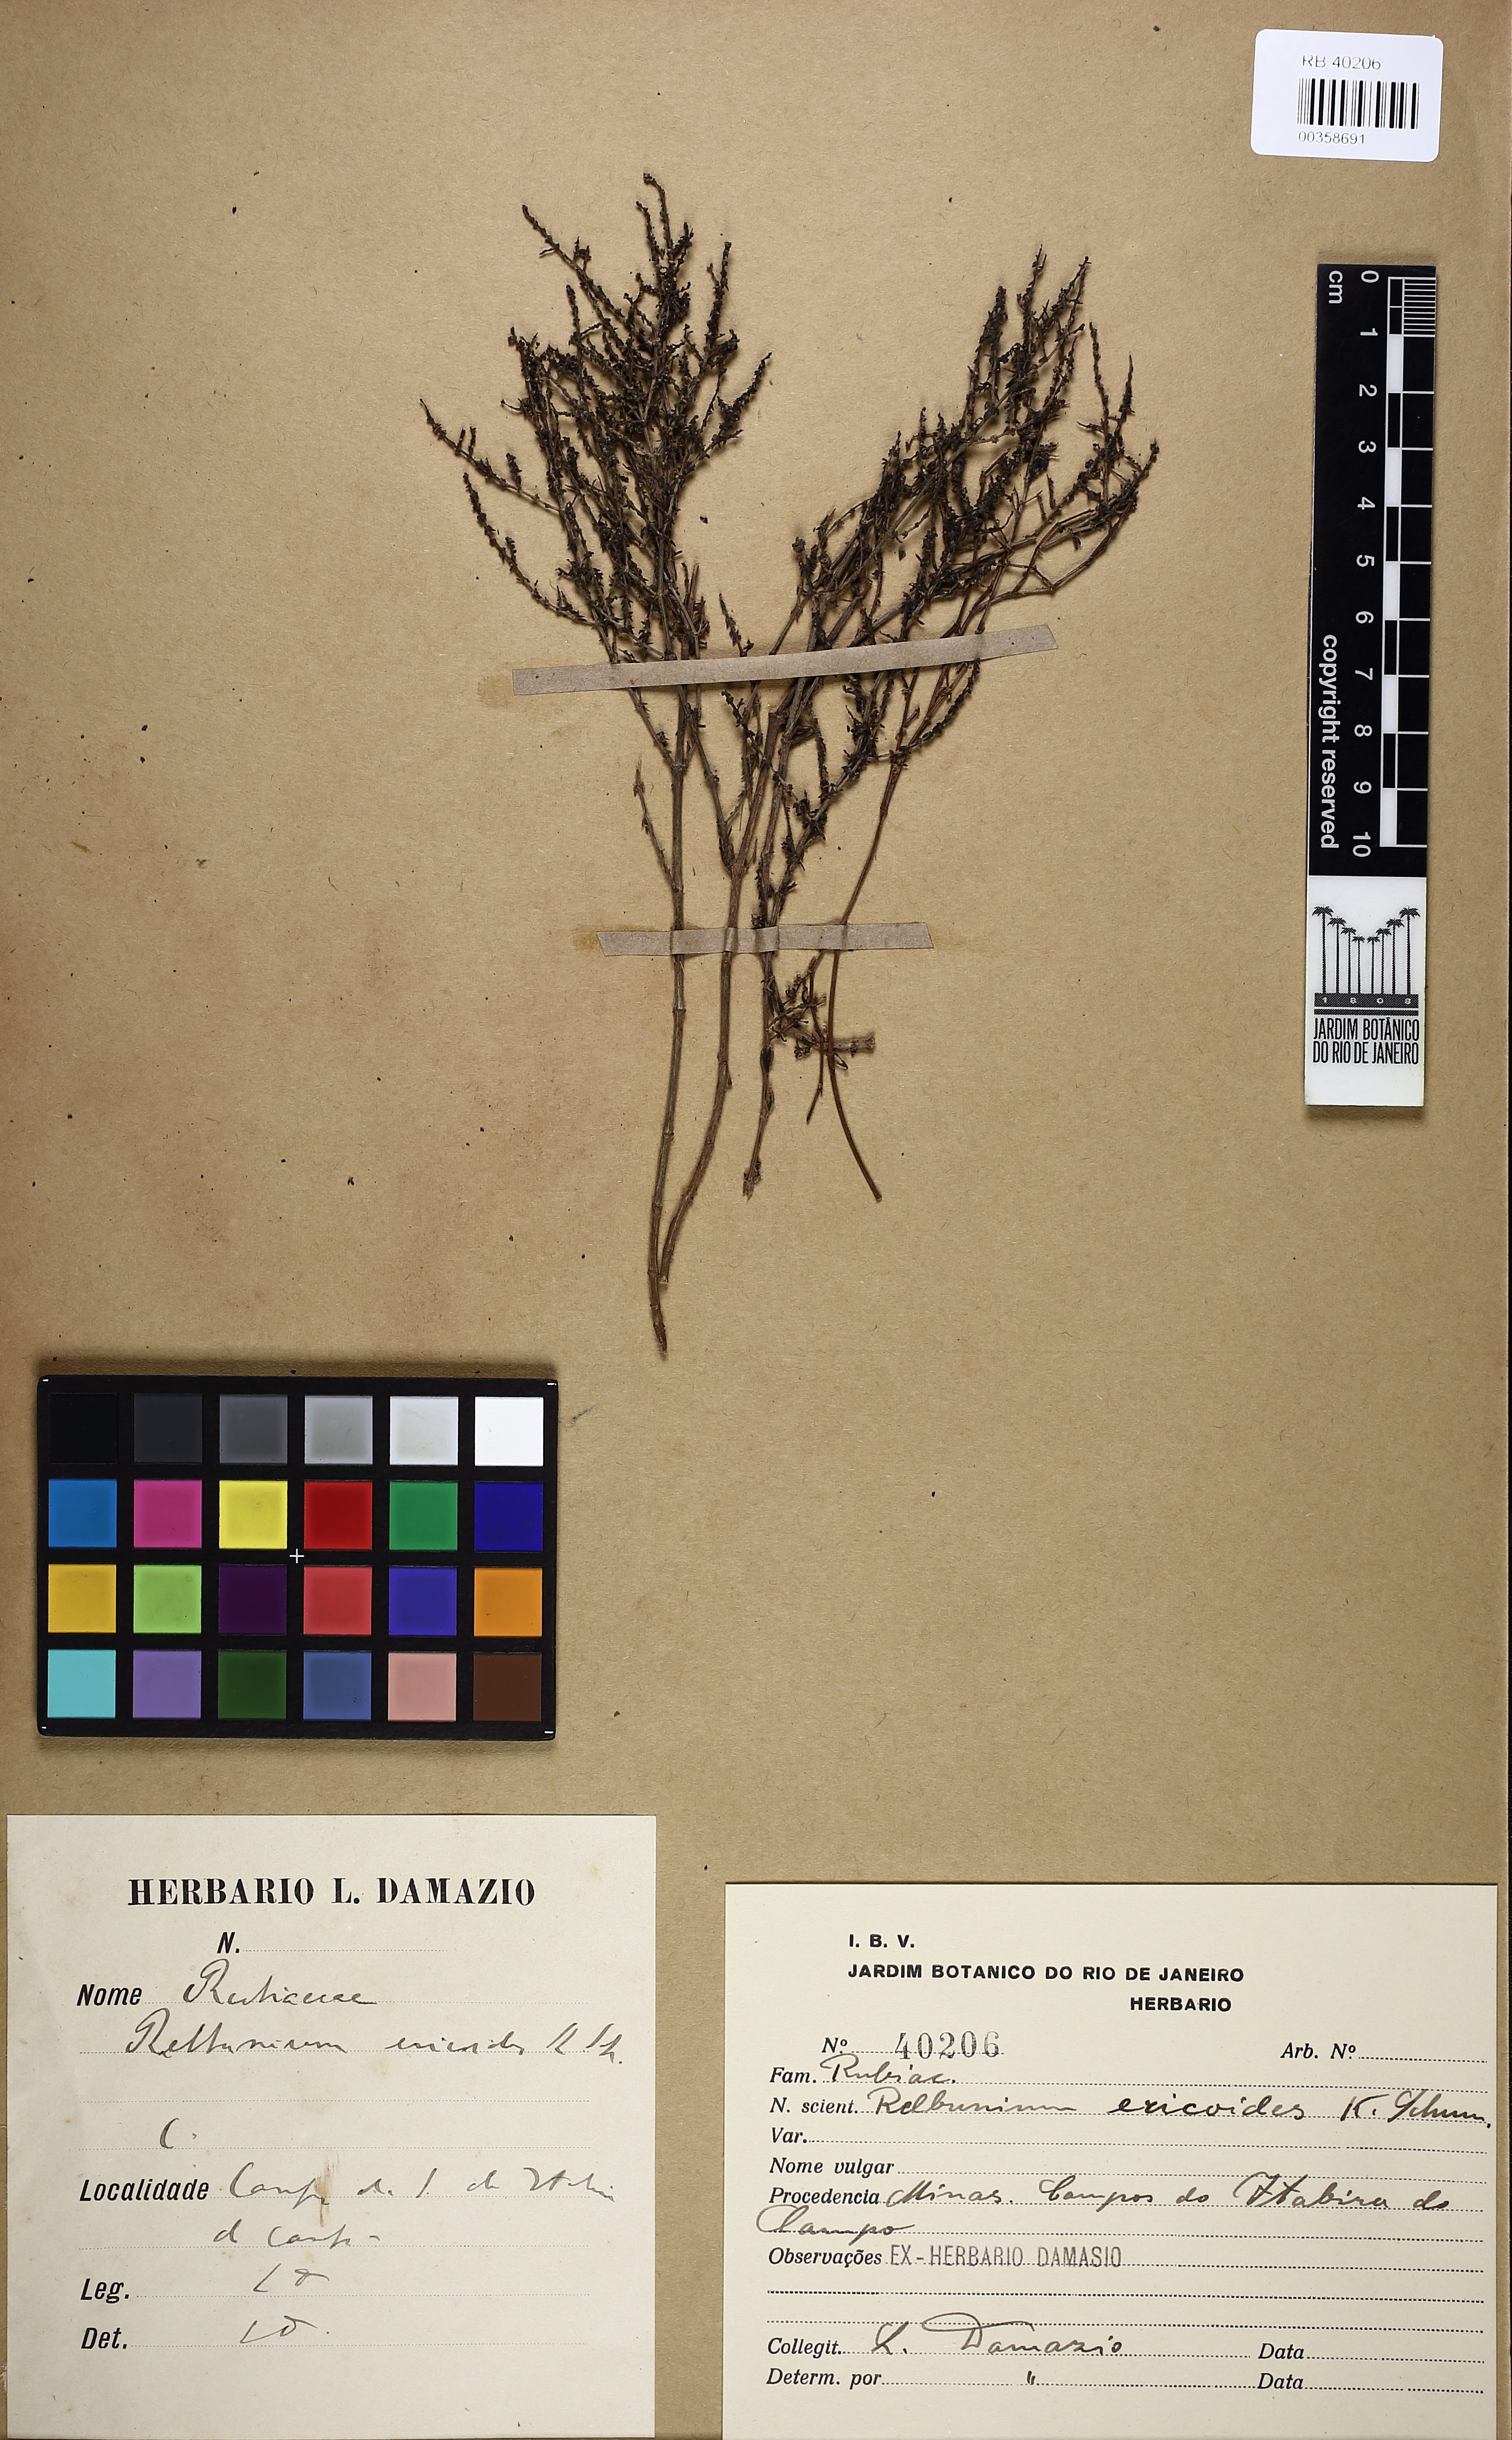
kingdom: Plantae
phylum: Tracheophyta
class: Magnoliopsida
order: Gentianales
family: Rubiaceae
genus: Galium
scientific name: Galium ericoides
